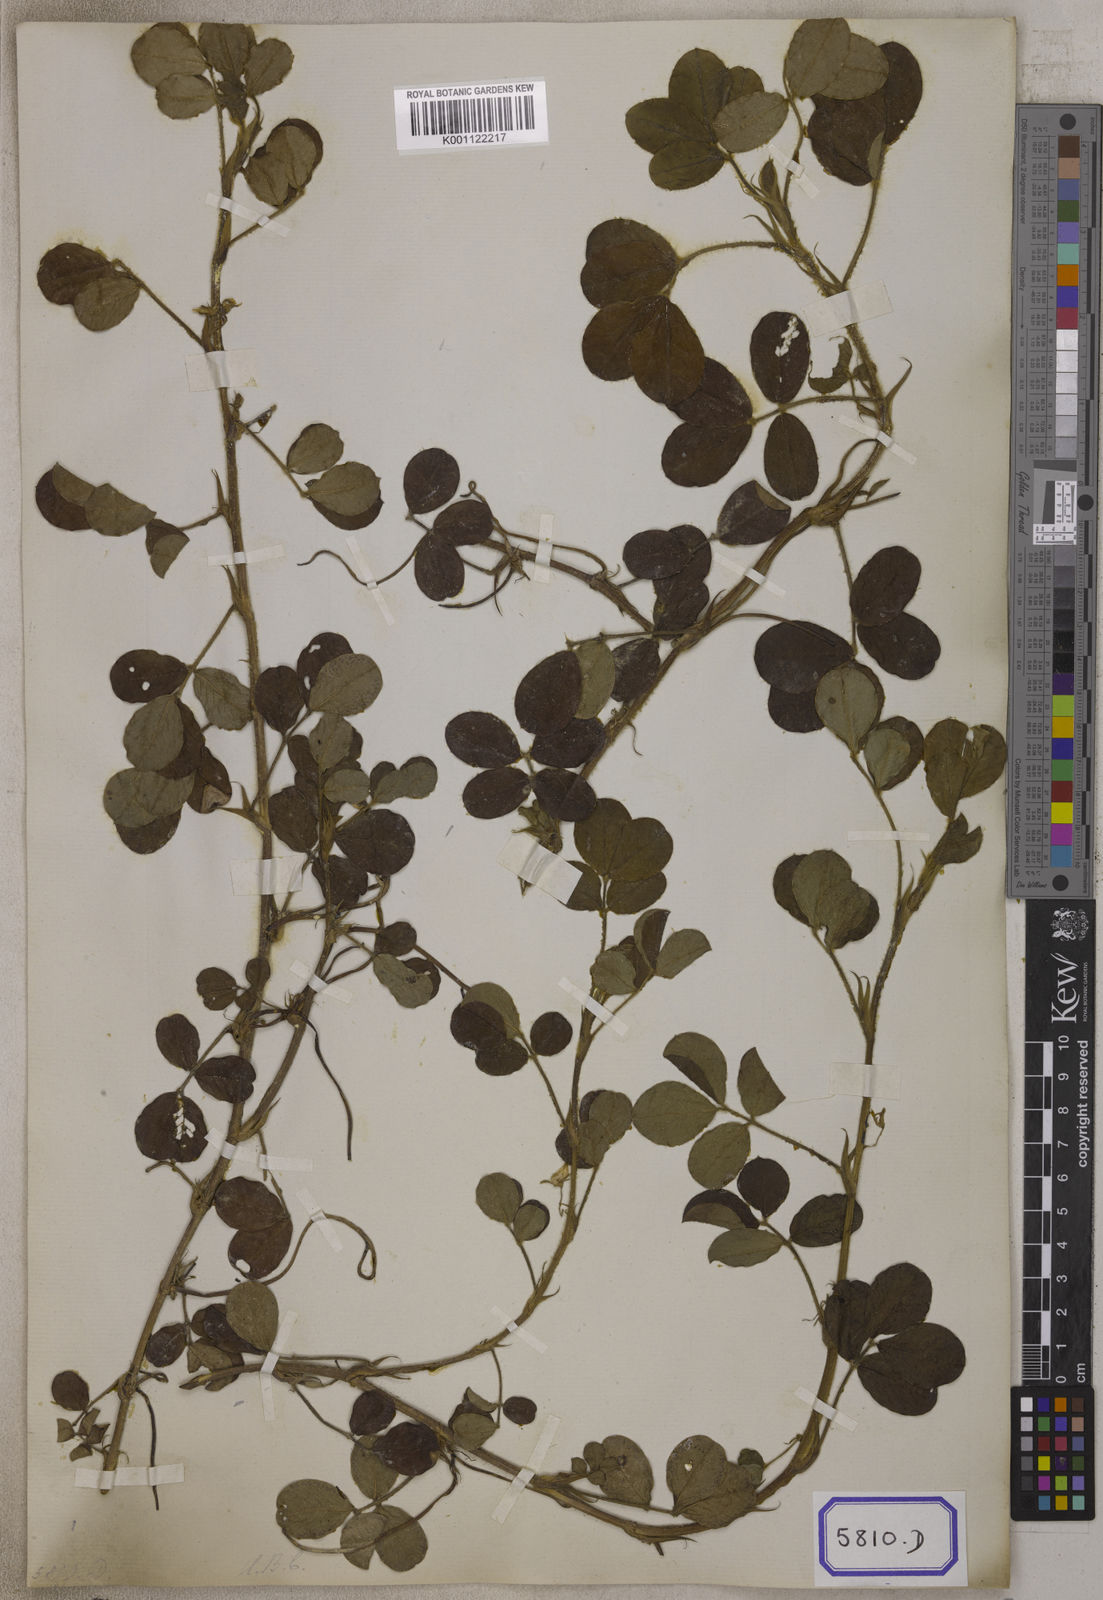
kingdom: Plantae
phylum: Tracheophyta
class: Magnoliopsida
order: Fabales
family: Fabaceae
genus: Arachis
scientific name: Arachis hypogaea
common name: Peanut
